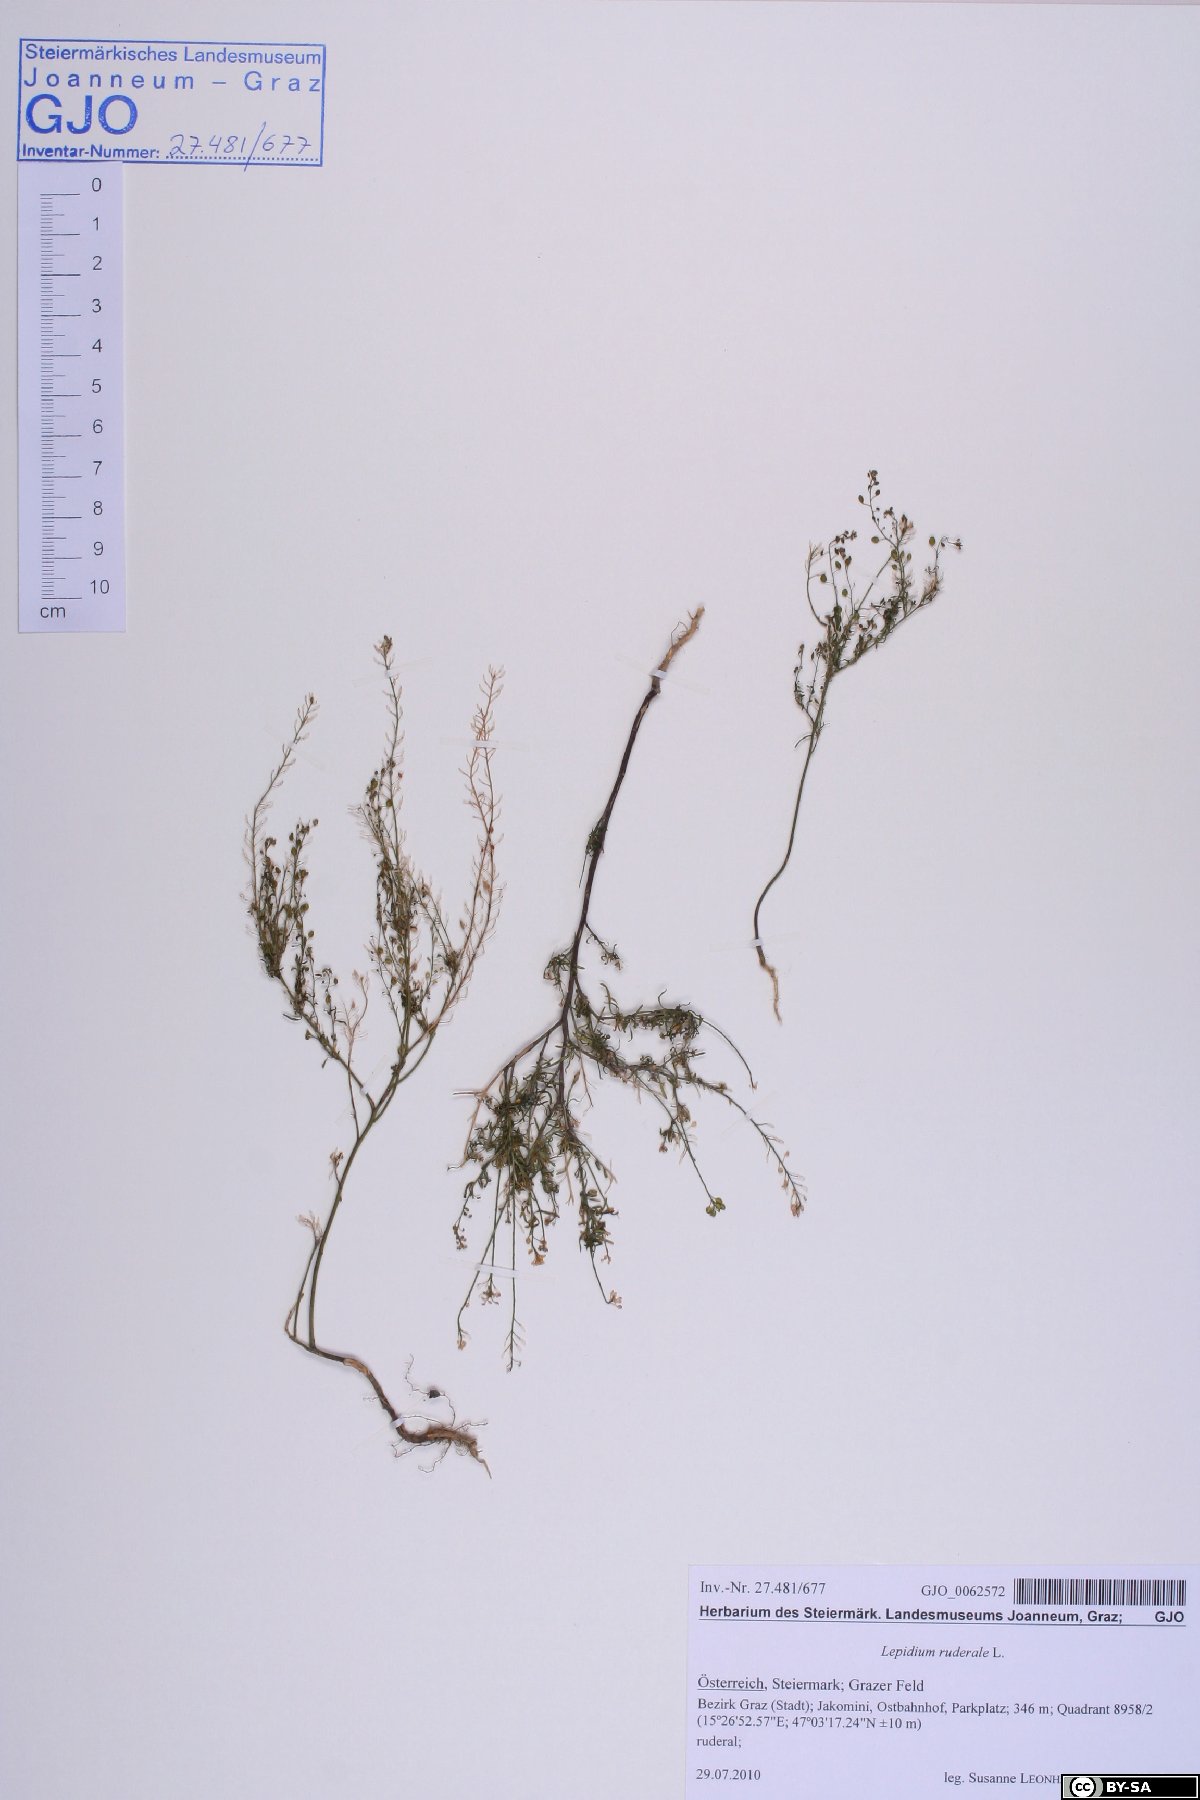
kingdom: Plantae
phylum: Tracheophyta
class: Magnoliopsida
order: Brassicales
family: Brassicaceae
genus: Lepidium
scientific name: Lepidium ruderale
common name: Narrow-leaved pepperwort
